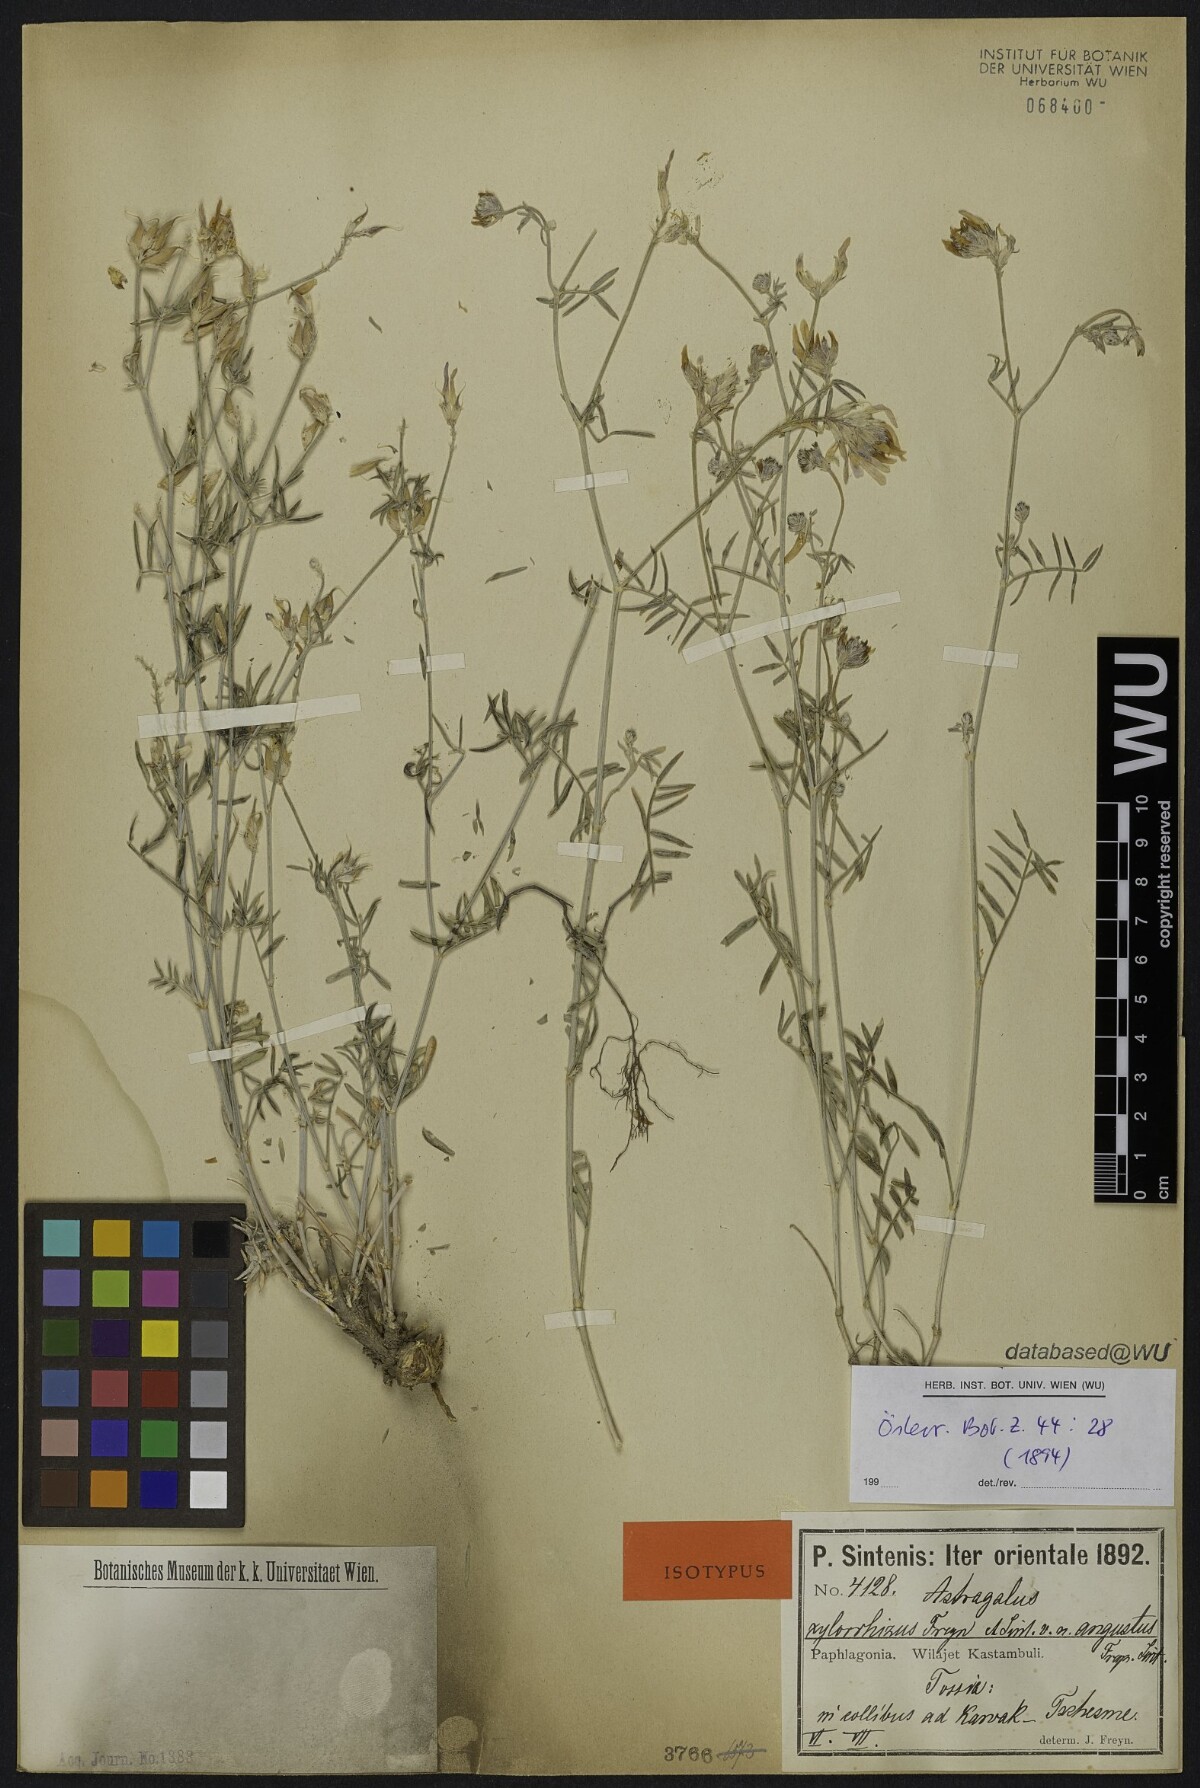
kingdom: Plantae
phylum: Tracheophyta
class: Magnoliopsida
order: Fabales
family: Fabaceae
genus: Astragalus
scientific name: Astragalus aduncus
